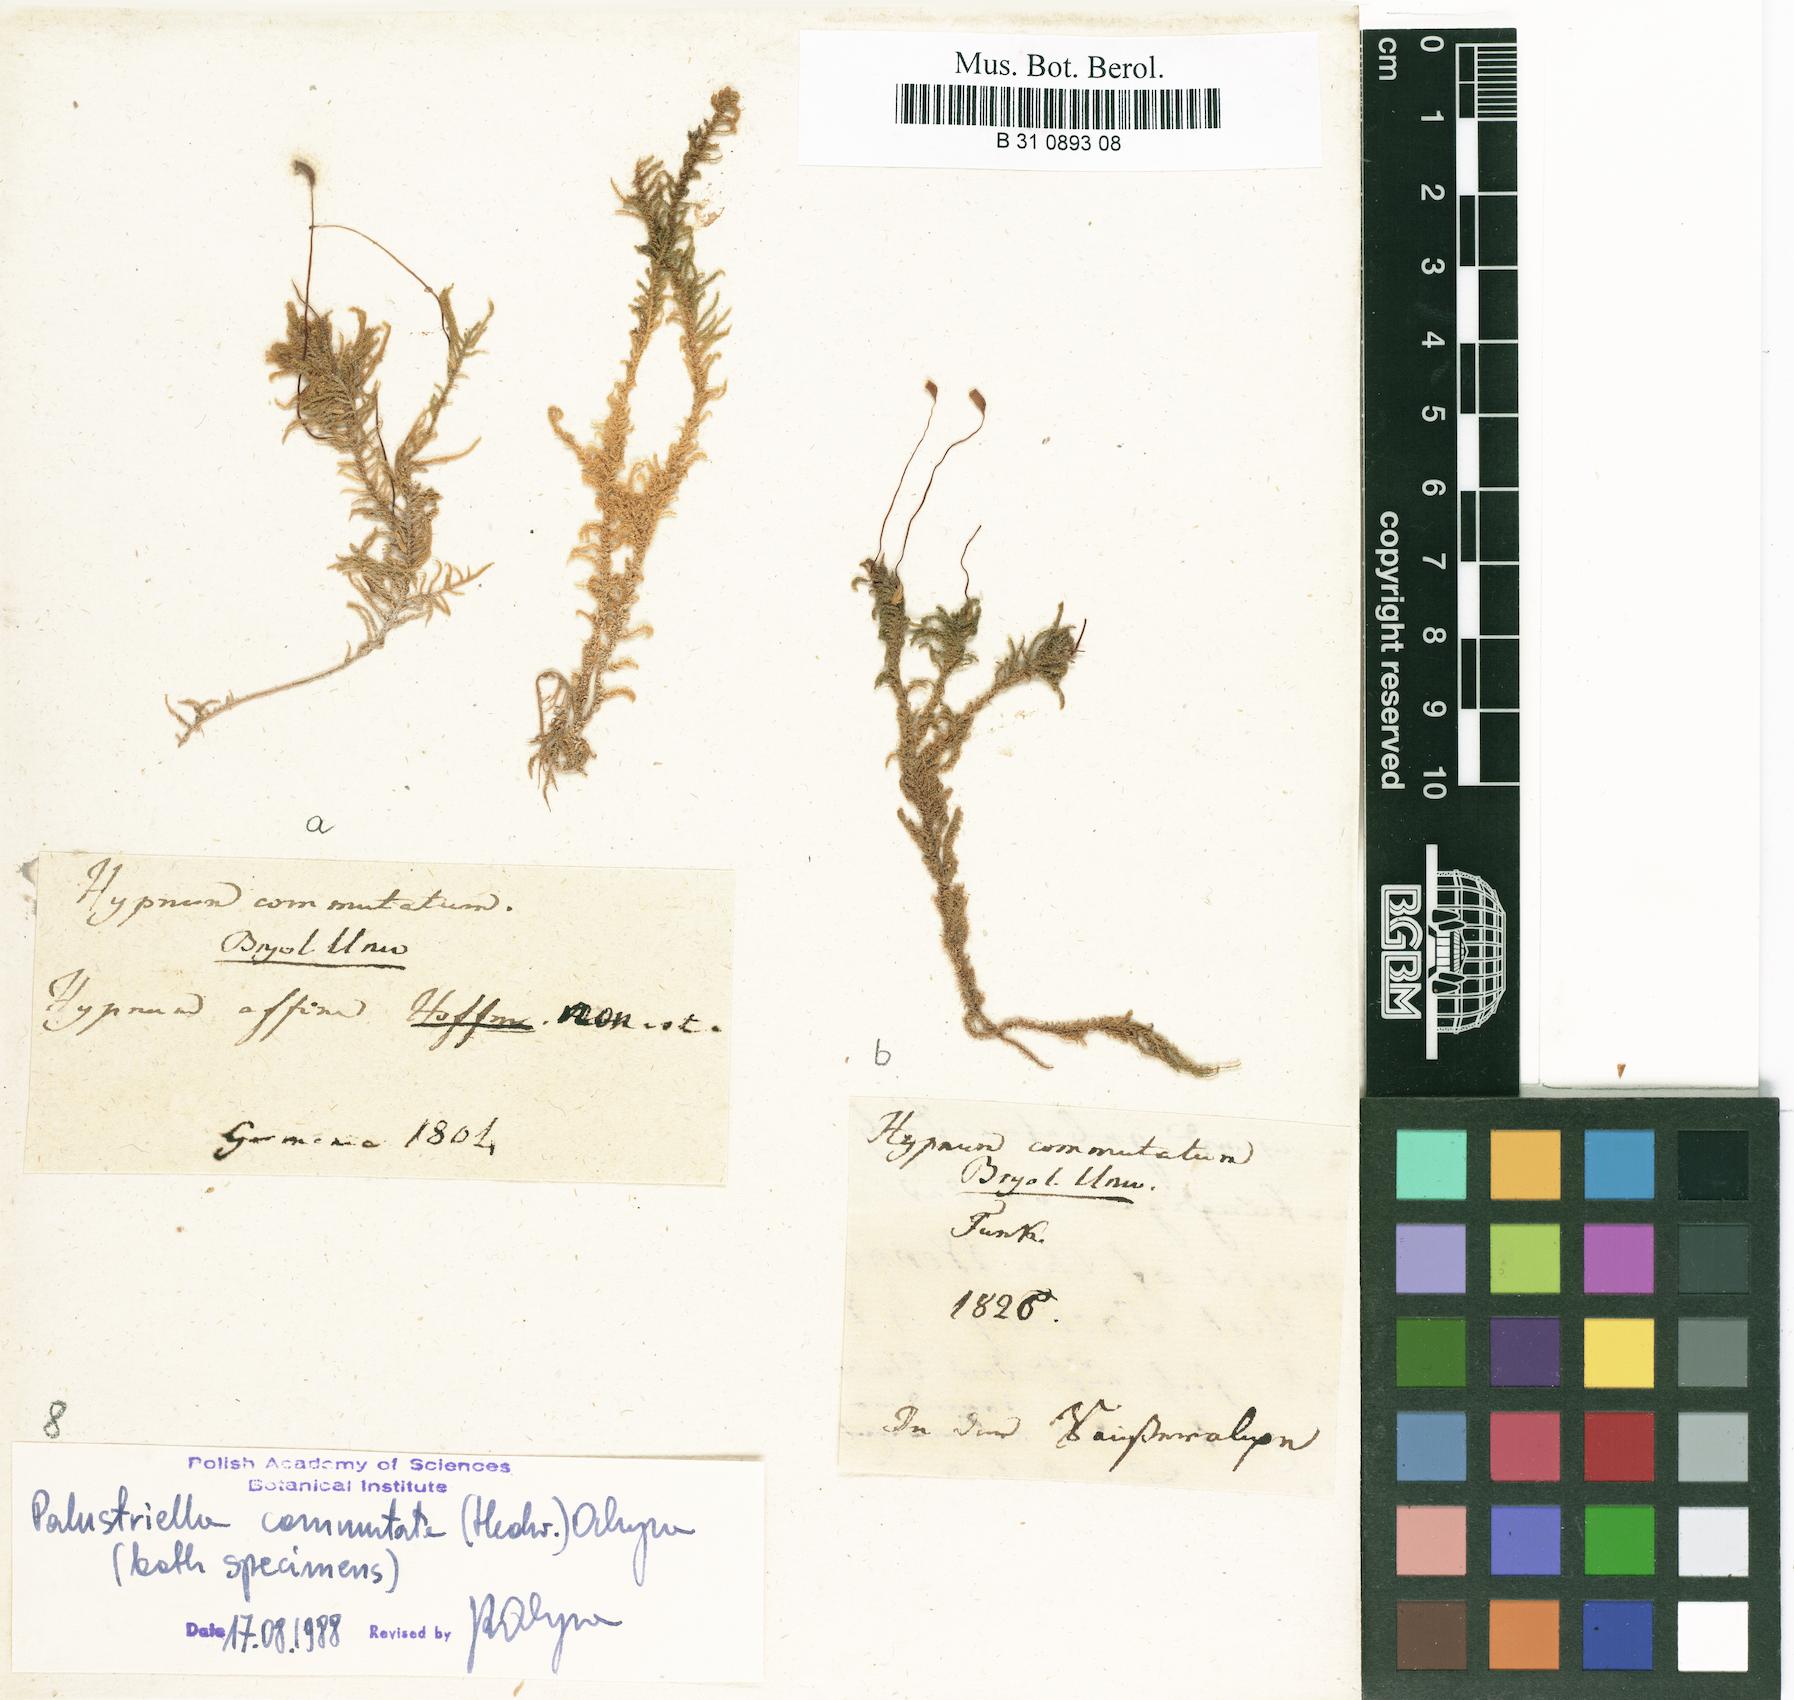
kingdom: Plantae
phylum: Bryophyta
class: Bryopsida
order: Hypnales
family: Amblystegiaceae
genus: Palustriella
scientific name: Palustriella commutata
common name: Curled hook-moss
